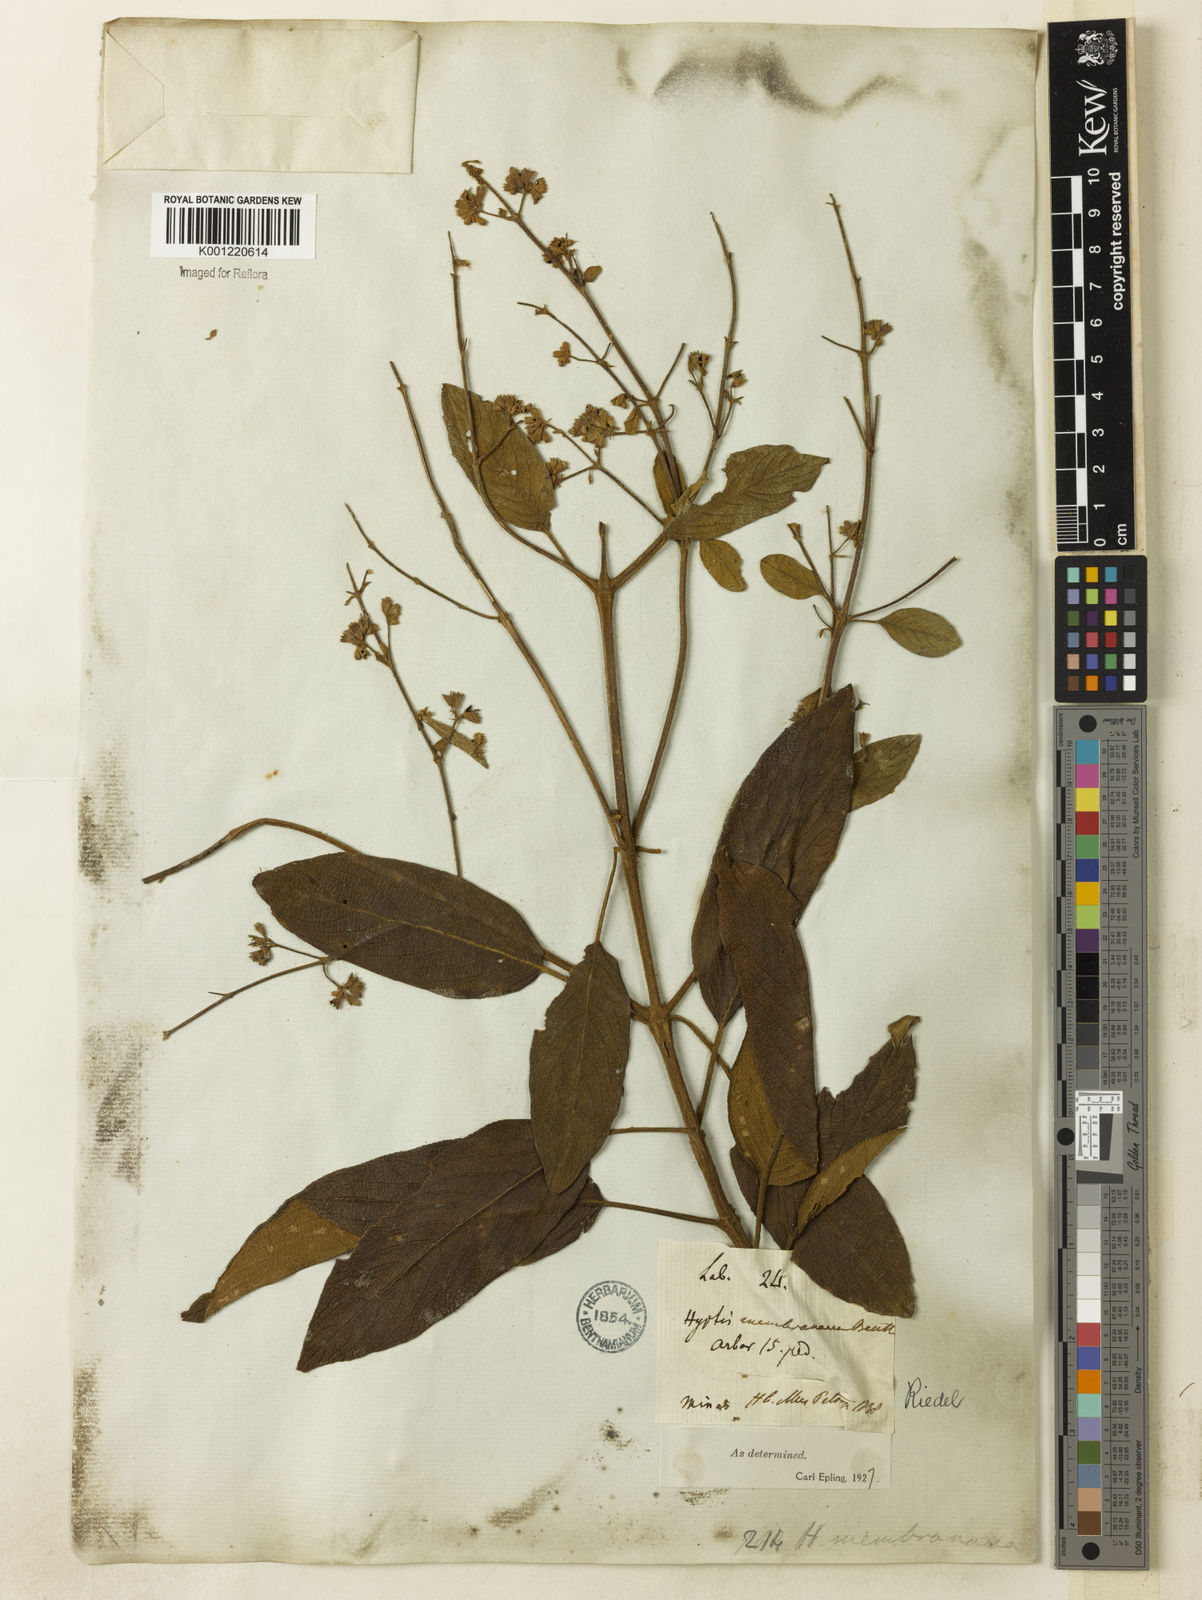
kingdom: Plantae
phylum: Tracheophyta
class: Magnoliopsida
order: Lamiales
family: Lamiaceae
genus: Hyptidendron
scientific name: Hyptidendron asperrimum
